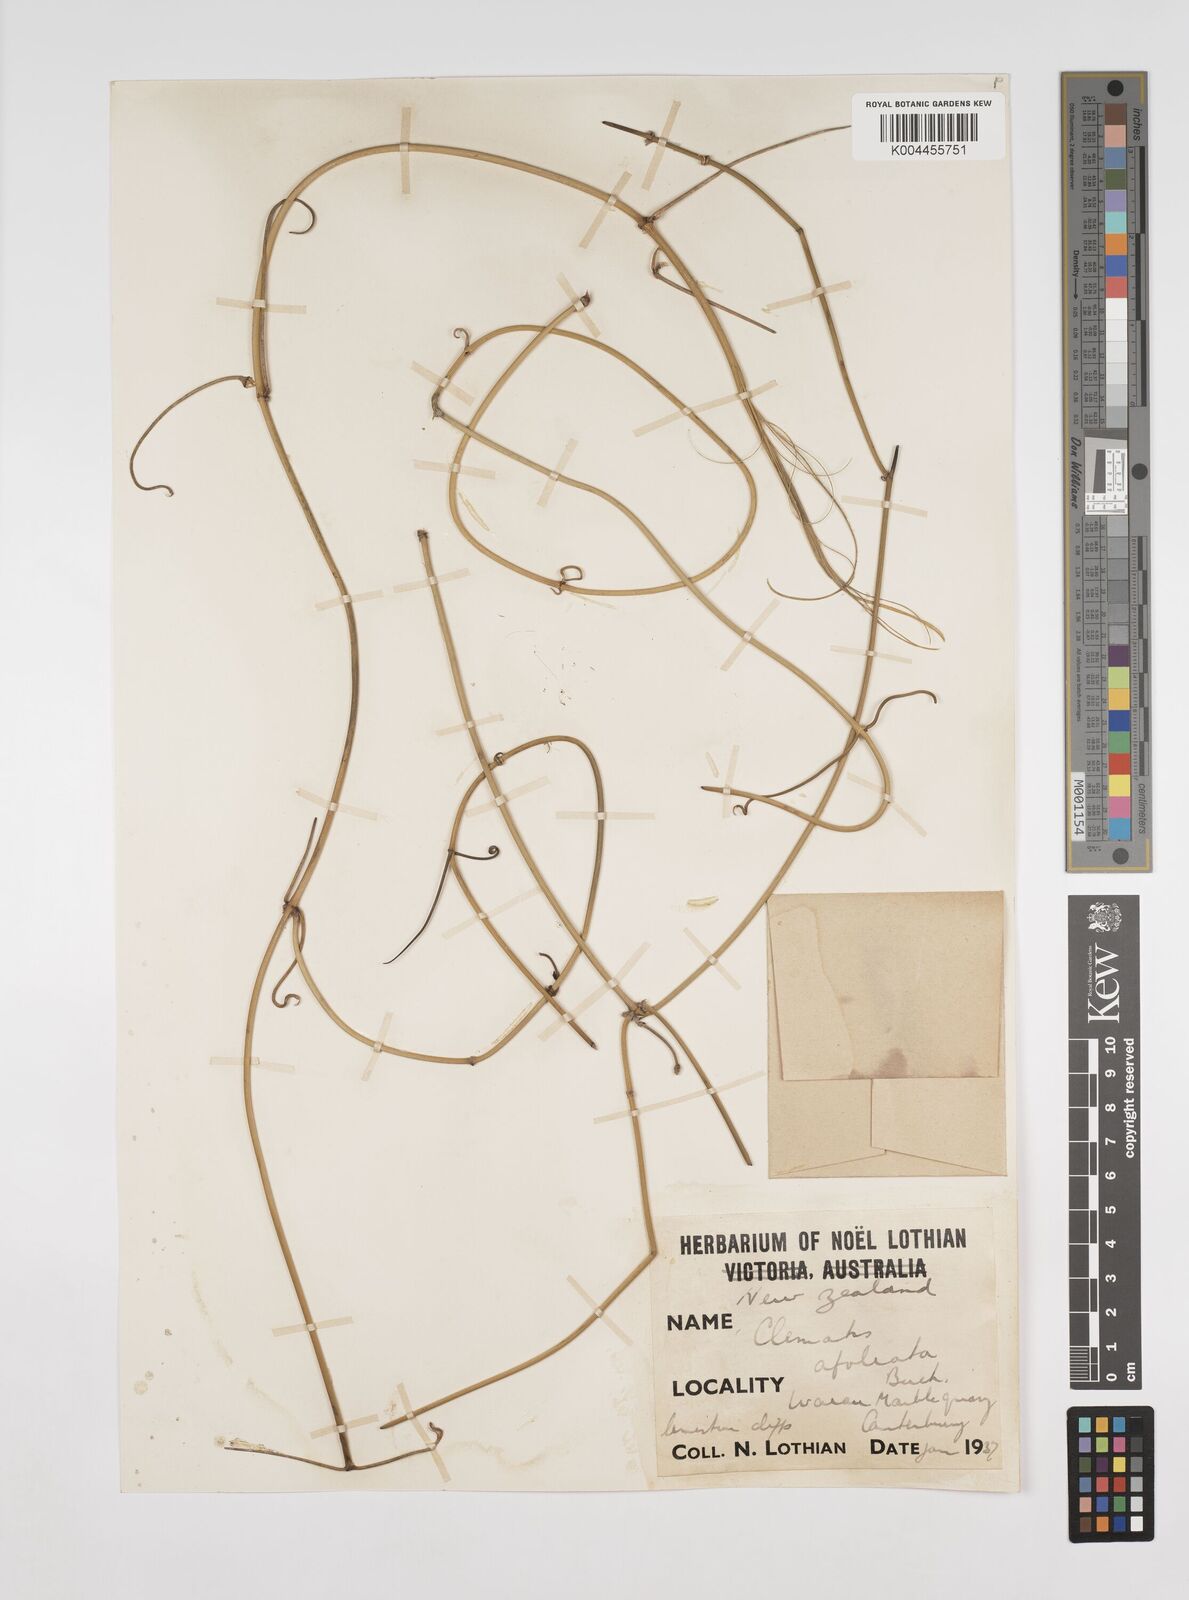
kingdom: Plantae
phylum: Tracheophyta
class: Magnoliopsida
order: Ranunculales
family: Ranunculaceae
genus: Clematis
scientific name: Clematis afoliata
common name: Rush-stem clematis
